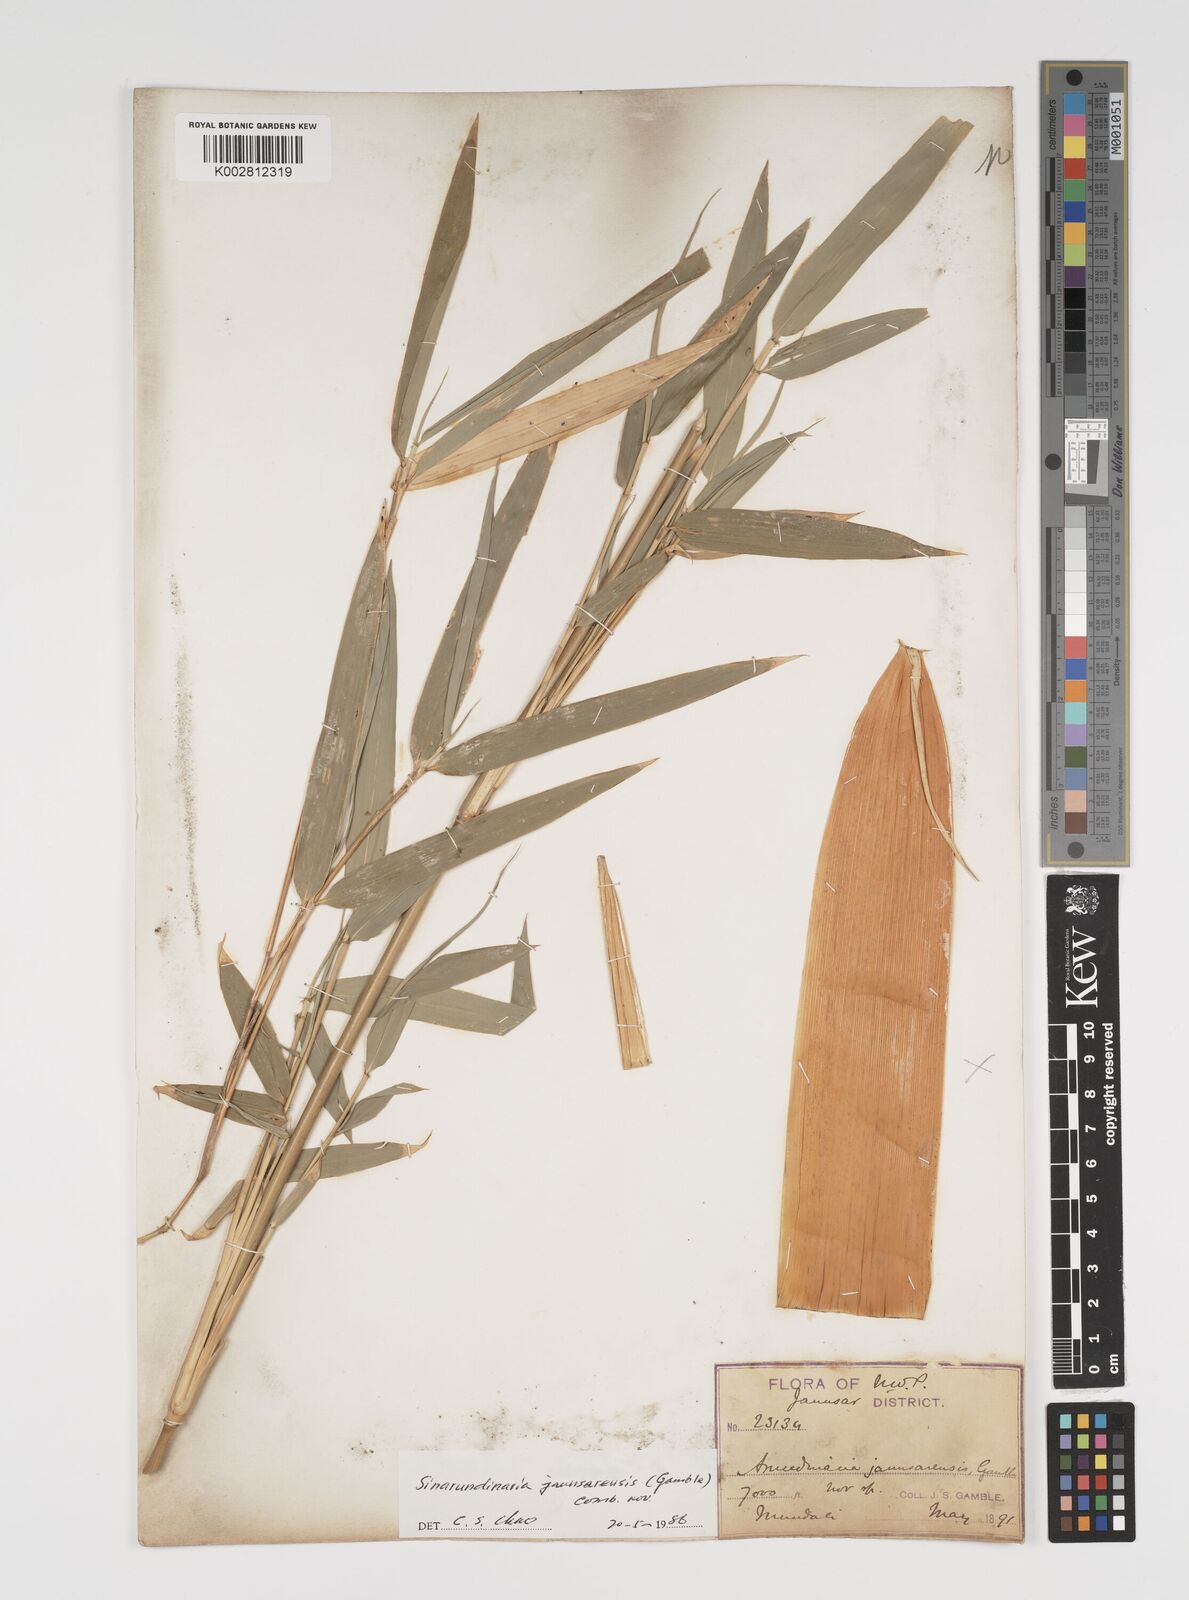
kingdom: Plantae
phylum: Tracheophyta
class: Liliopsida
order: Poales
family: Poaceae
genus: Yushania
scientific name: Yushania anceps
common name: Indian fountain-bamboo
